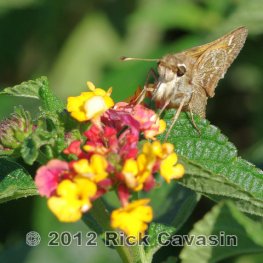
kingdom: Animalia
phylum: Arthropoda
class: Insecta
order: Lepidoptera
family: Hesperiidae
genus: Atalopedes
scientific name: Atalopedes campestris
